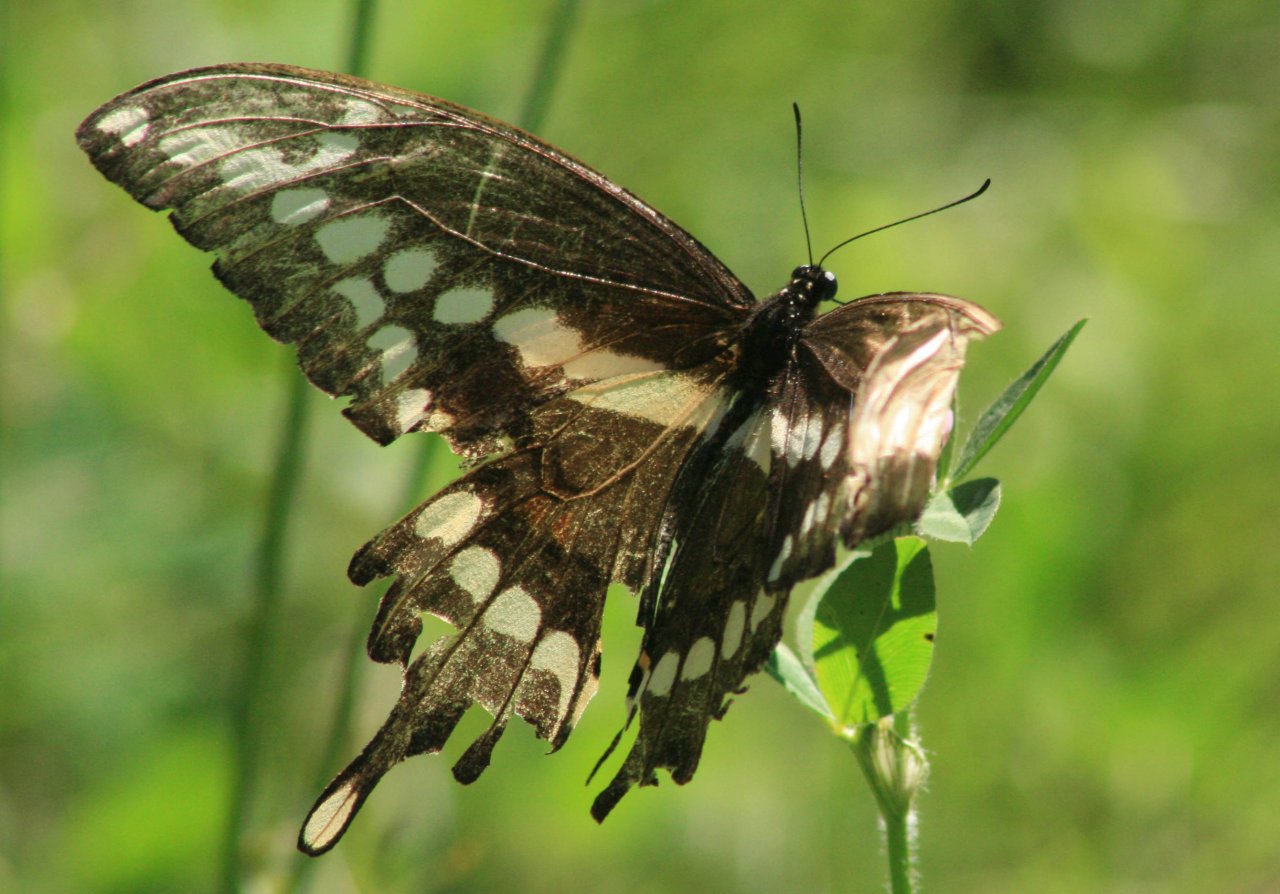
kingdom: Animalia
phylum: Arthropoda
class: Insecta
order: Lepidoptera
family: Papilionidae
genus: Papilio
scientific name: Papilio cresphontes
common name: Eastern Giant Swallowtail
